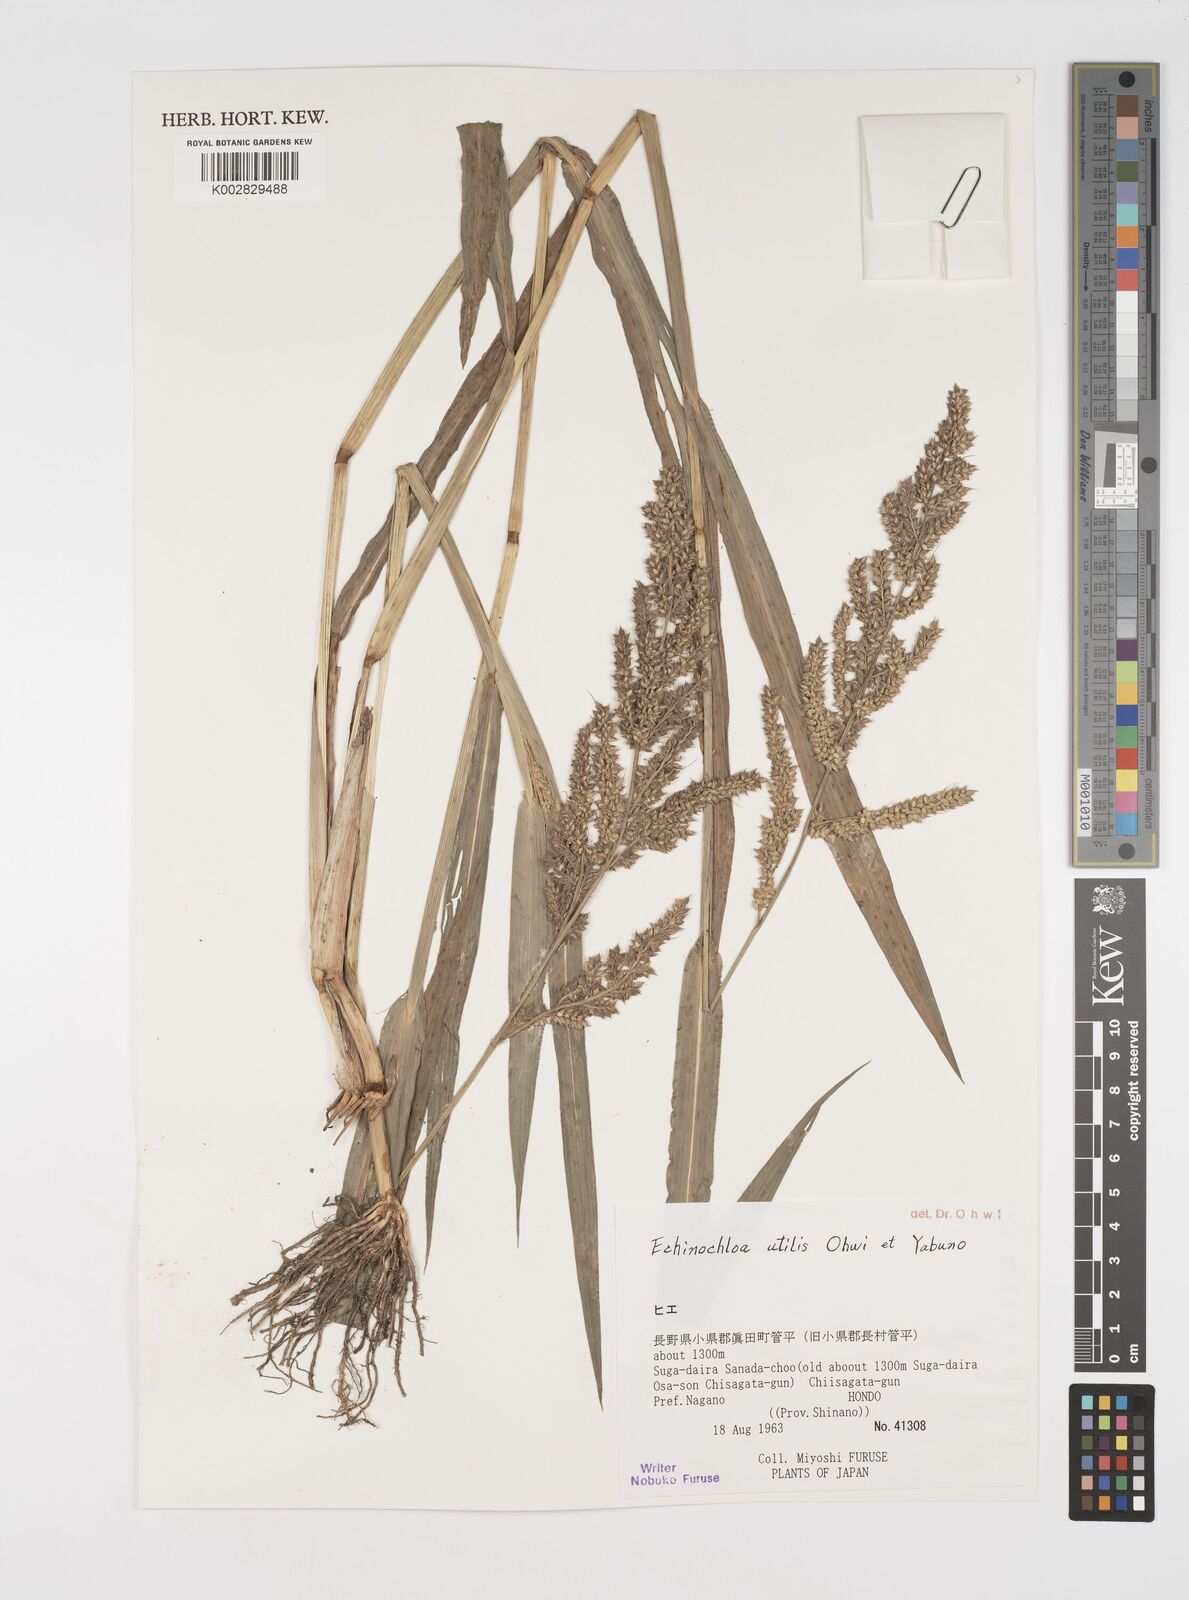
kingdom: Plantae
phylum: Tracheophyta
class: Liliopsida
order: Poales
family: Poaceae
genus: Echinochloa
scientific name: Echinochloa crus-galli
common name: Cockspur
